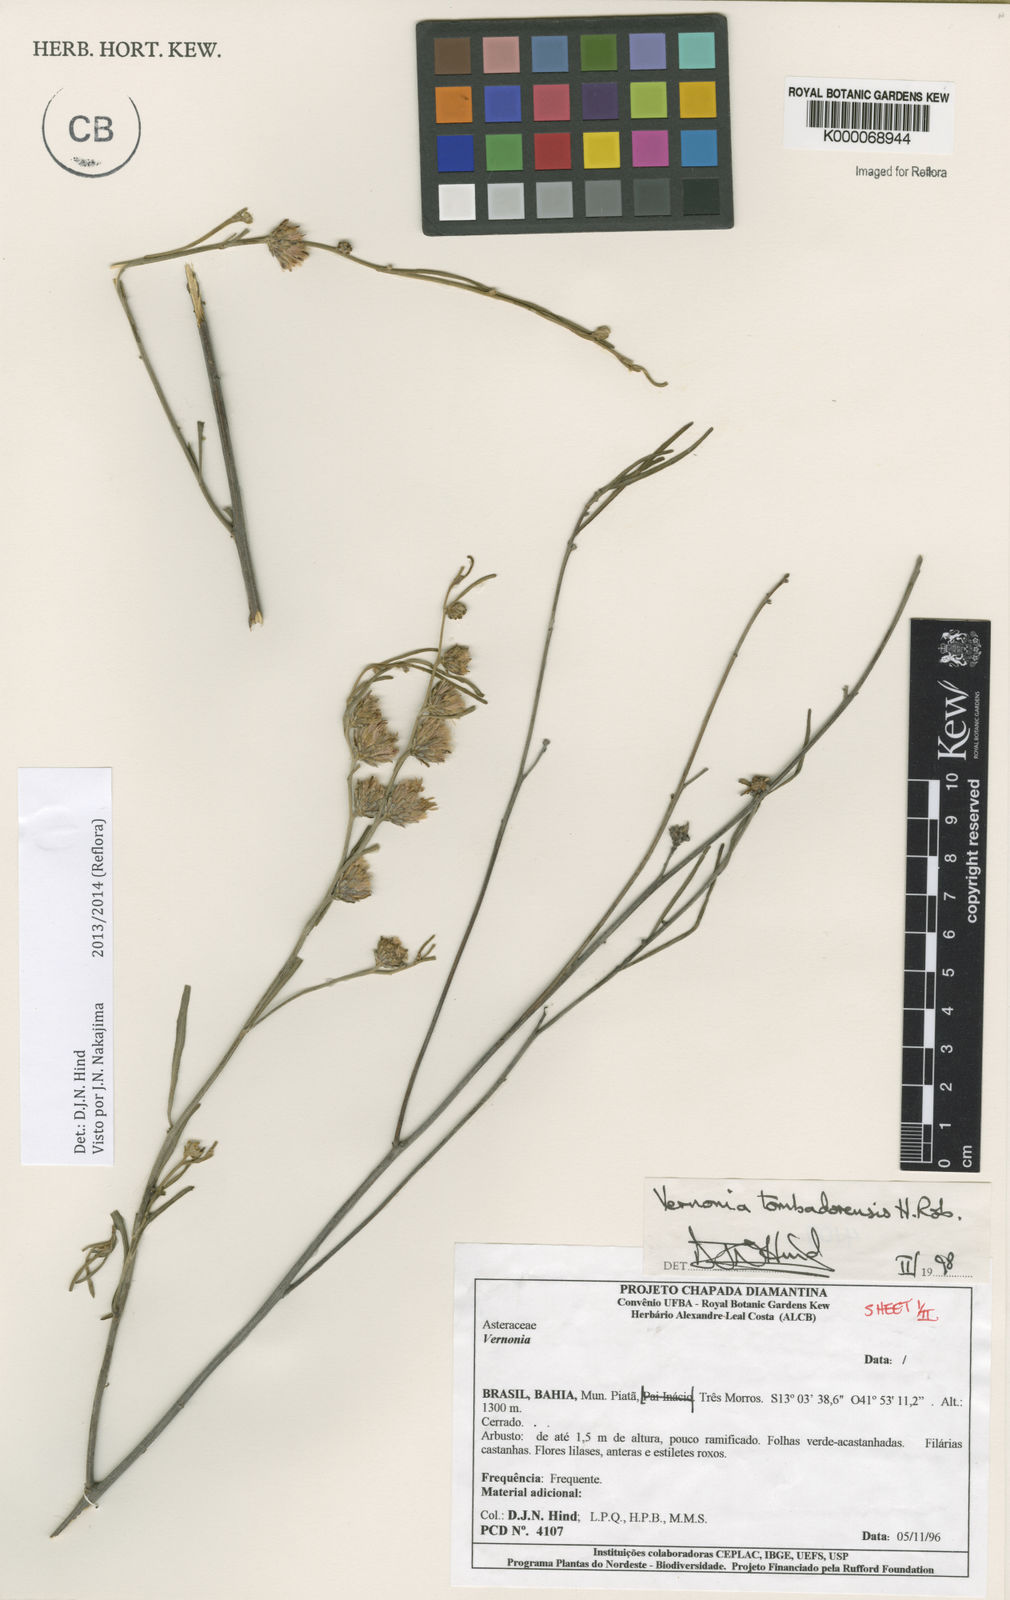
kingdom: Plantae
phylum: Tracheophyta
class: Magnoliopsida
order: Asterales
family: Asteraceae
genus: Lepidaploa
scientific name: Lepidaploa tombadorensis
